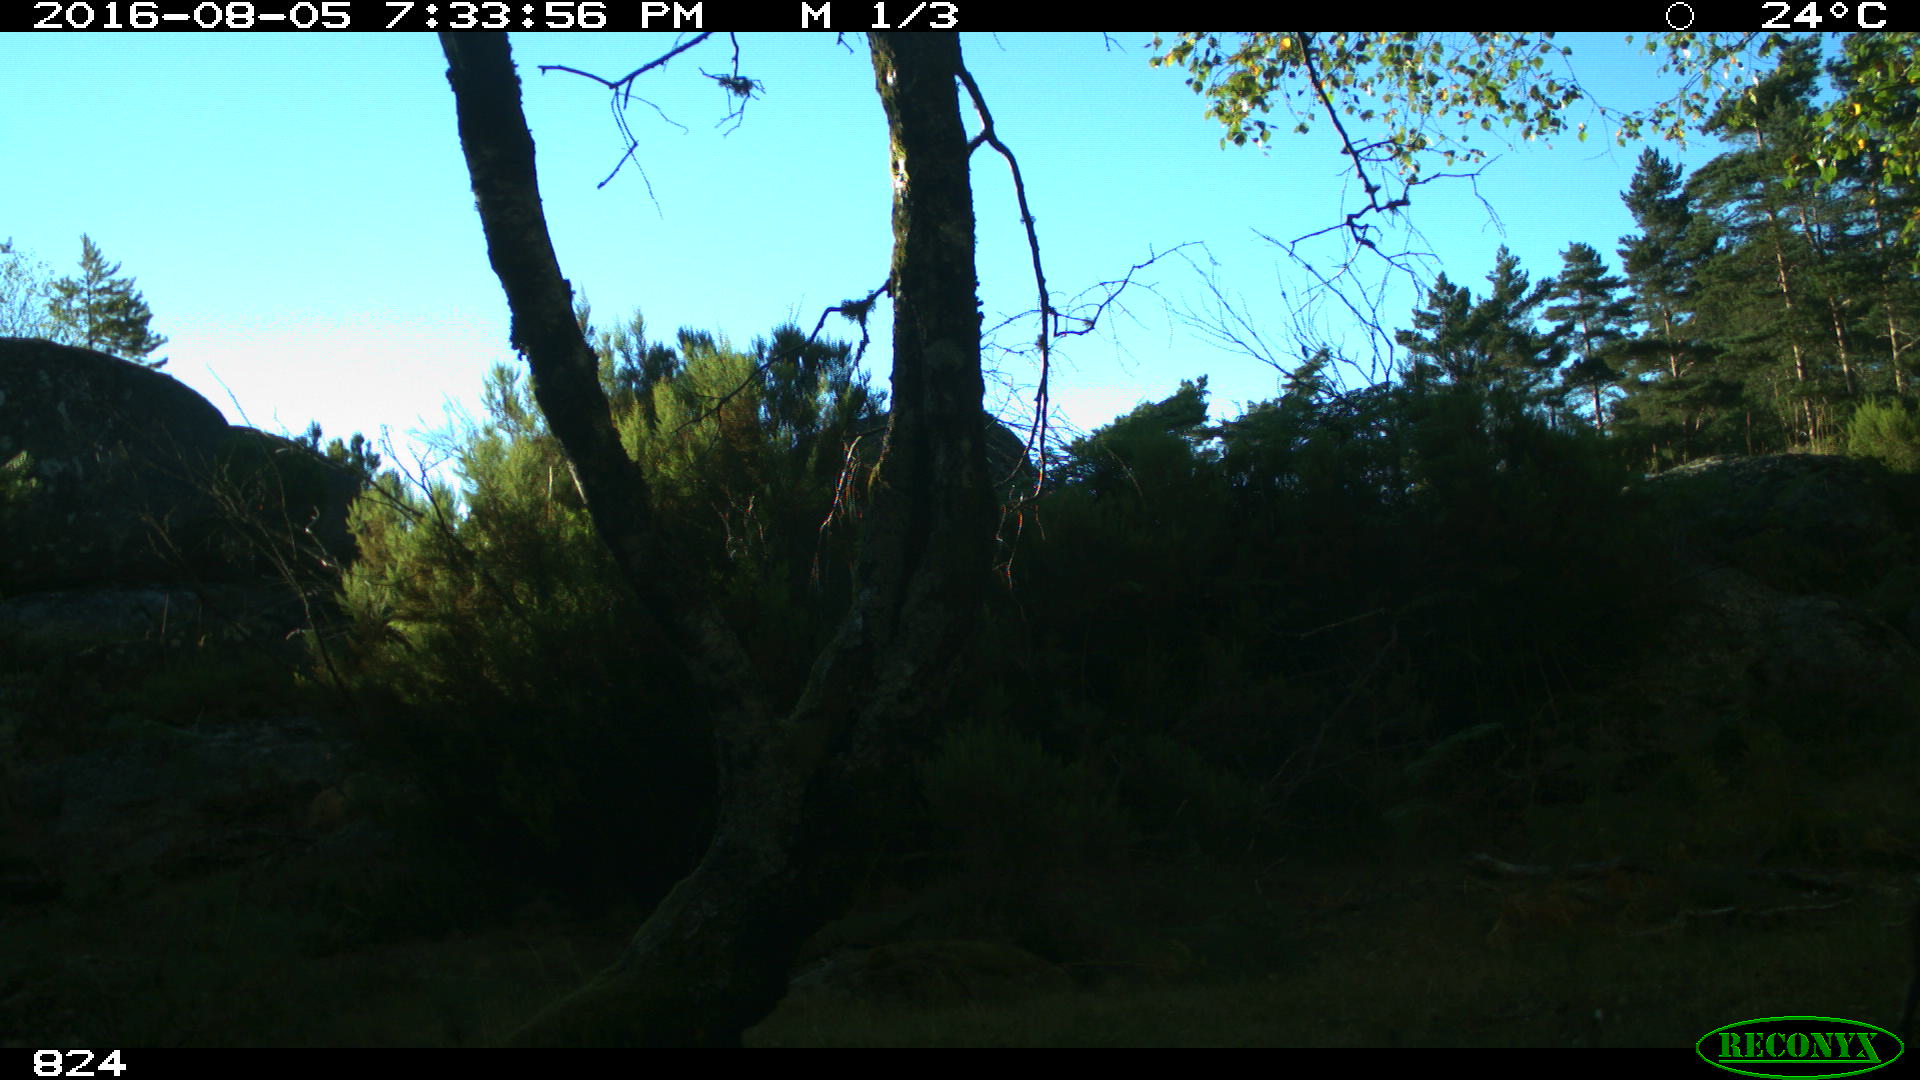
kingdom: Animalia
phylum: Chordata
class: Mammalia
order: Artiodactyla
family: Suidae
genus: Sus
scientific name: Sus scrofa
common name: Wild boar
